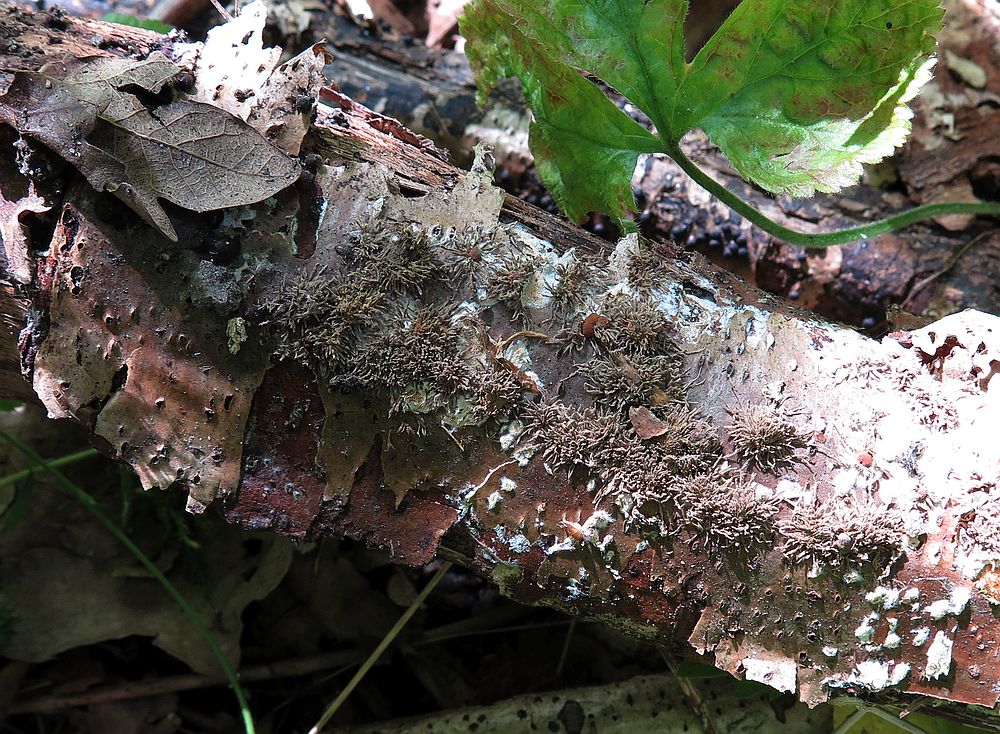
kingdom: Fungi
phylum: Ascomycota
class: Sordariomycetes
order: Xylariales
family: Hypoxylaceae
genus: Hypoxylon
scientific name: Hypoxylon howeanum
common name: halvkugleformet kulbær
